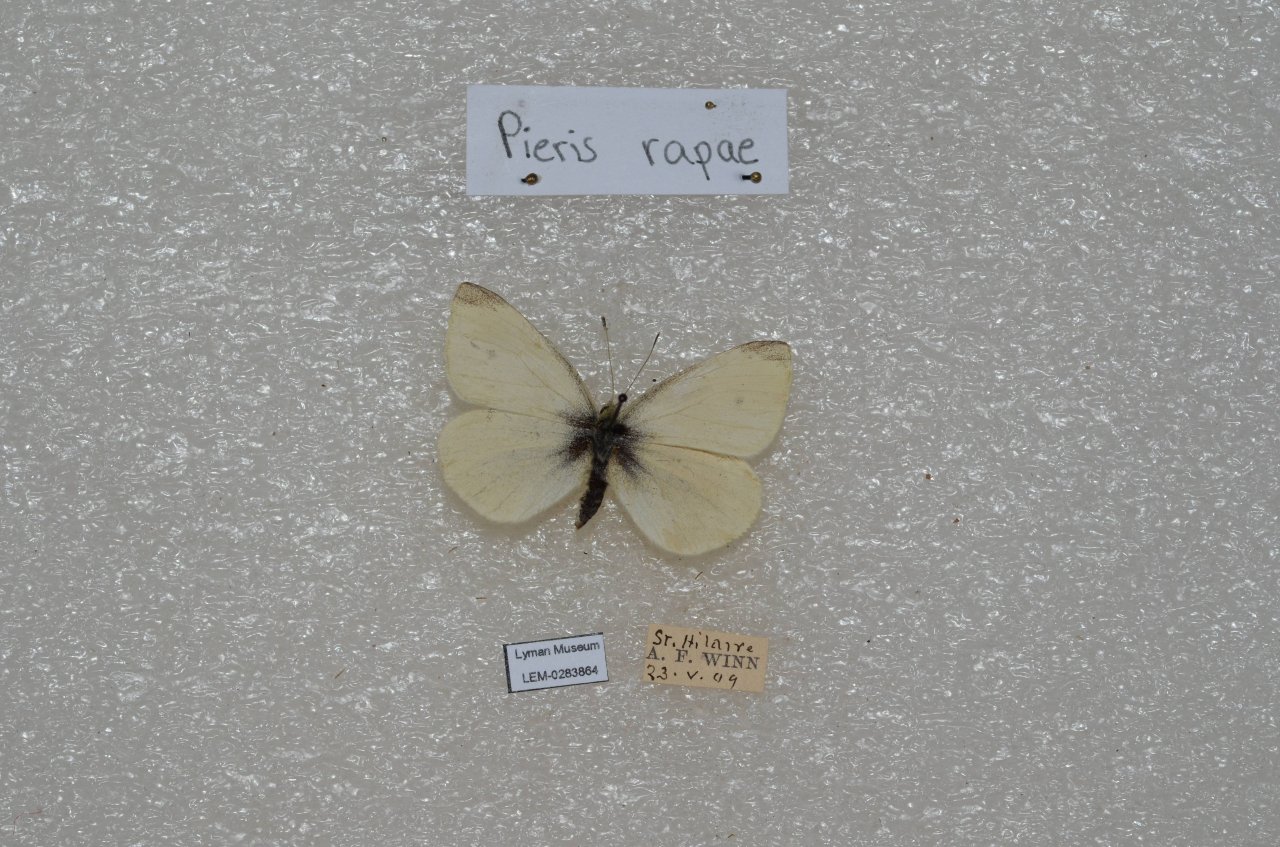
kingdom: Animalia
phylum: Arthropoda
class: Insecta
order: Lepidoptera
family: Pieridae
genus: Pieris
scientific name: Pieris rapae
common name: Cabbage White
